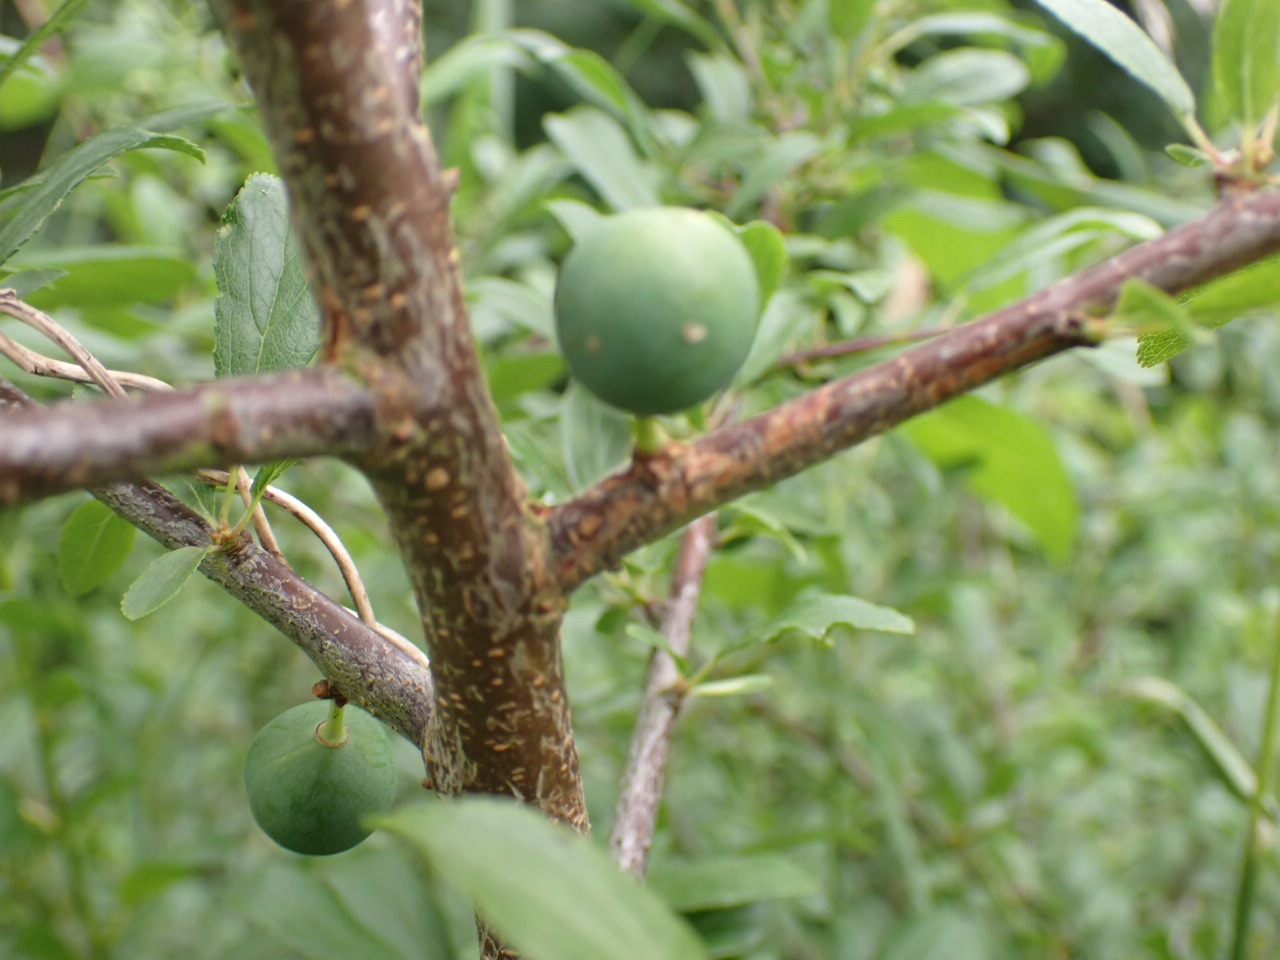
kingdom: Plantae
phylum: Tracheophyta
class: Magnoliopsida
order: Rosales
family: Rosaceae
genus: Prunus
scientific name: Prunus spinosa
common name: Slåen
